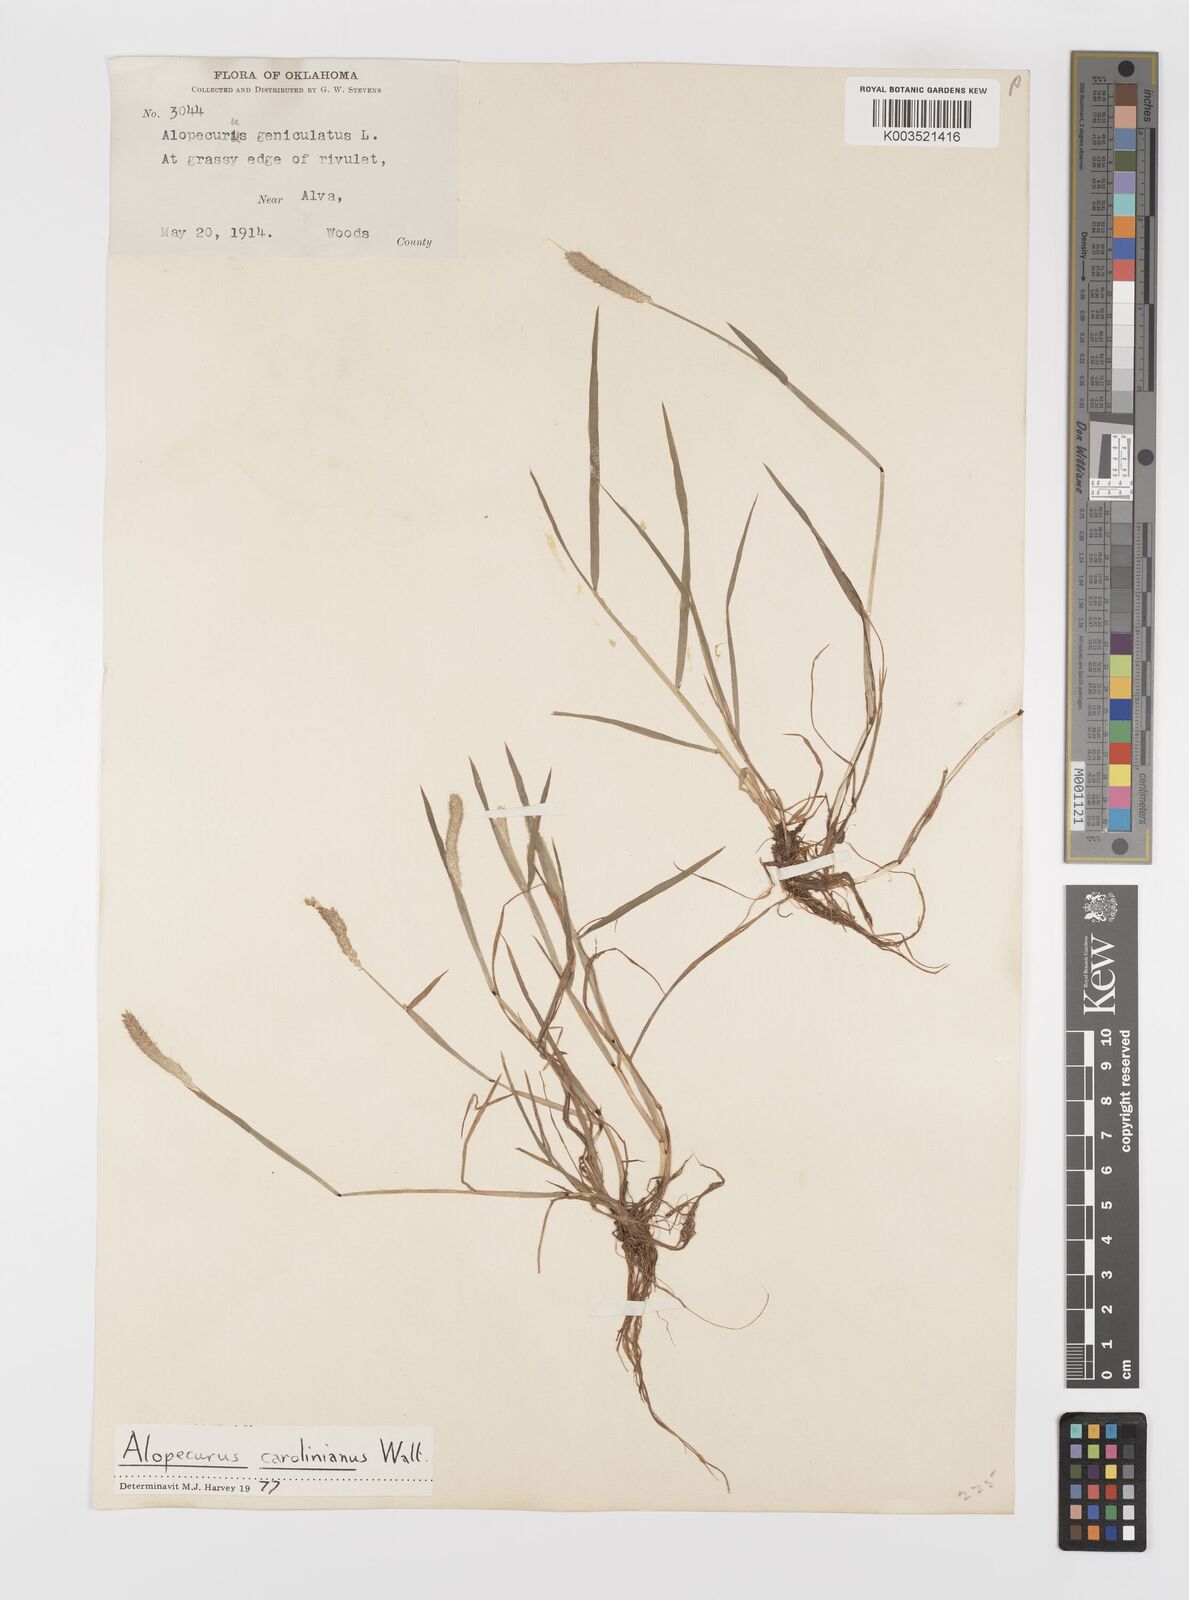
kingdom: Plantae
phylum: Tracheophyta
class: Liliopsida
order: Poales
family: Poaceae
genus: Alopecurus
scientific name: Alopecurus carolinianus
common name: Tufted foxtail
